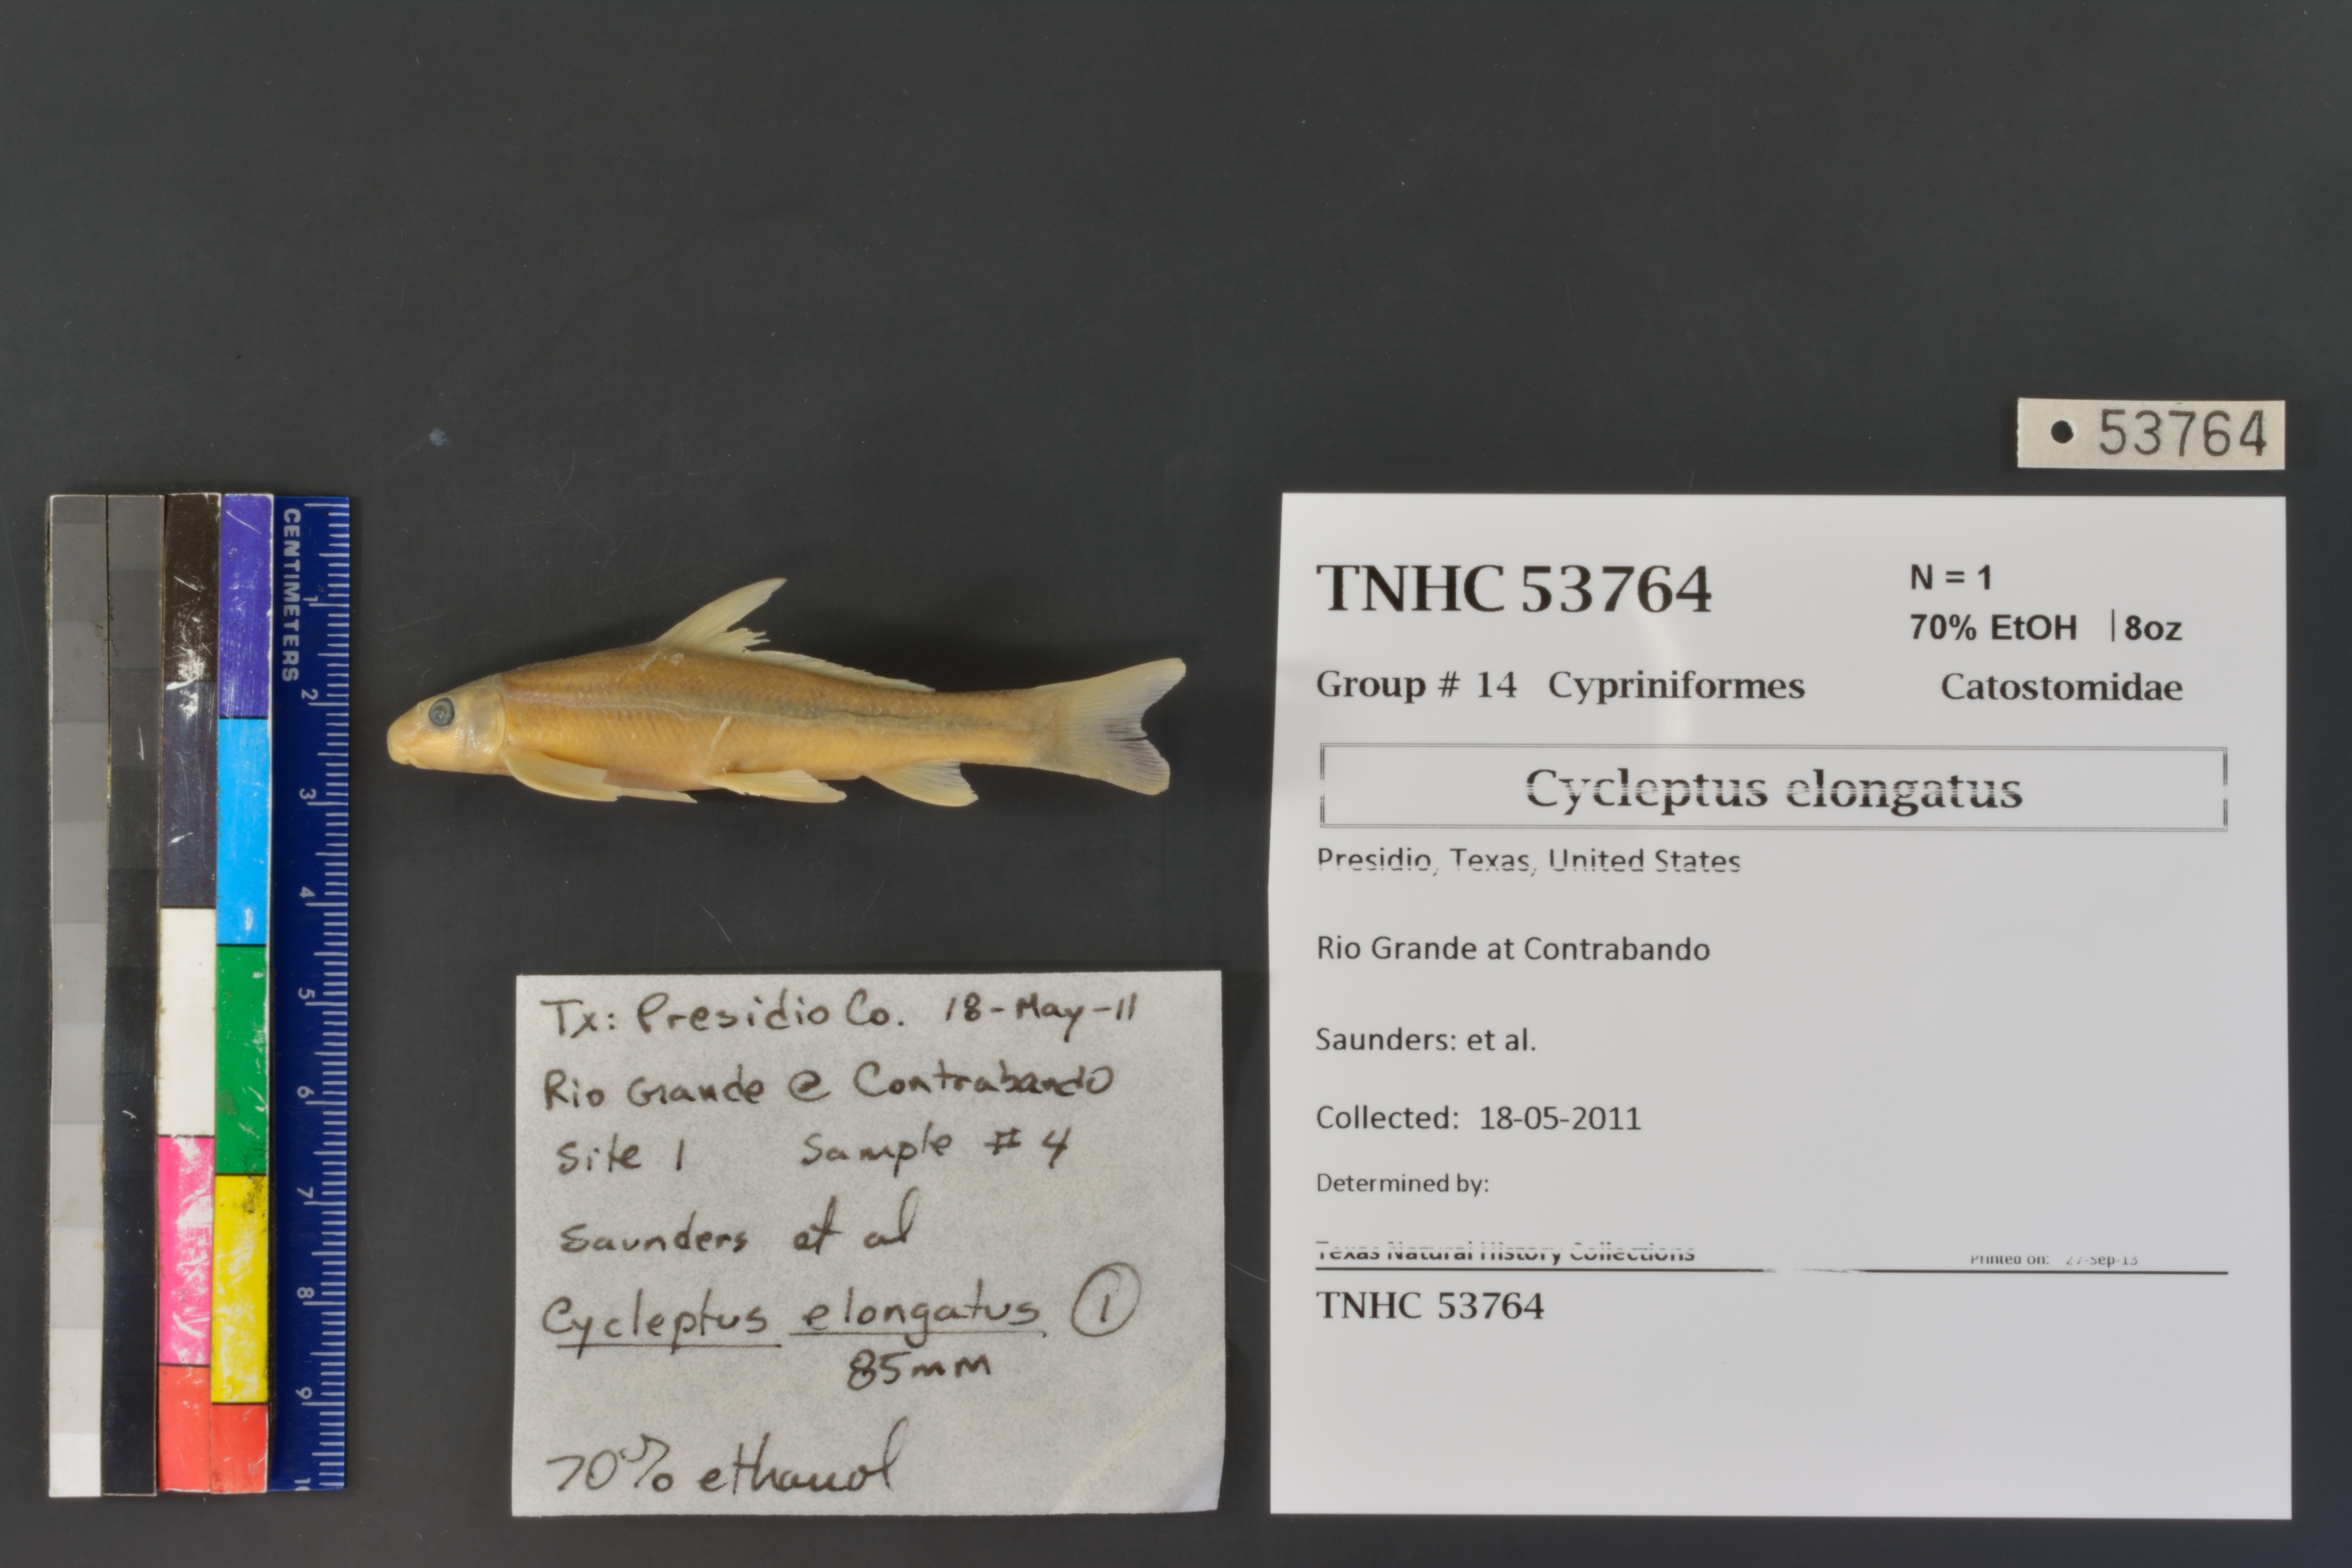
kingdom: Animalia
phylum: Chordata
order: Cypriniformes
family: Catostomidae
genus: Cycleptus
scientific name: Cycleptus elongatus
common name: Blue sucker
